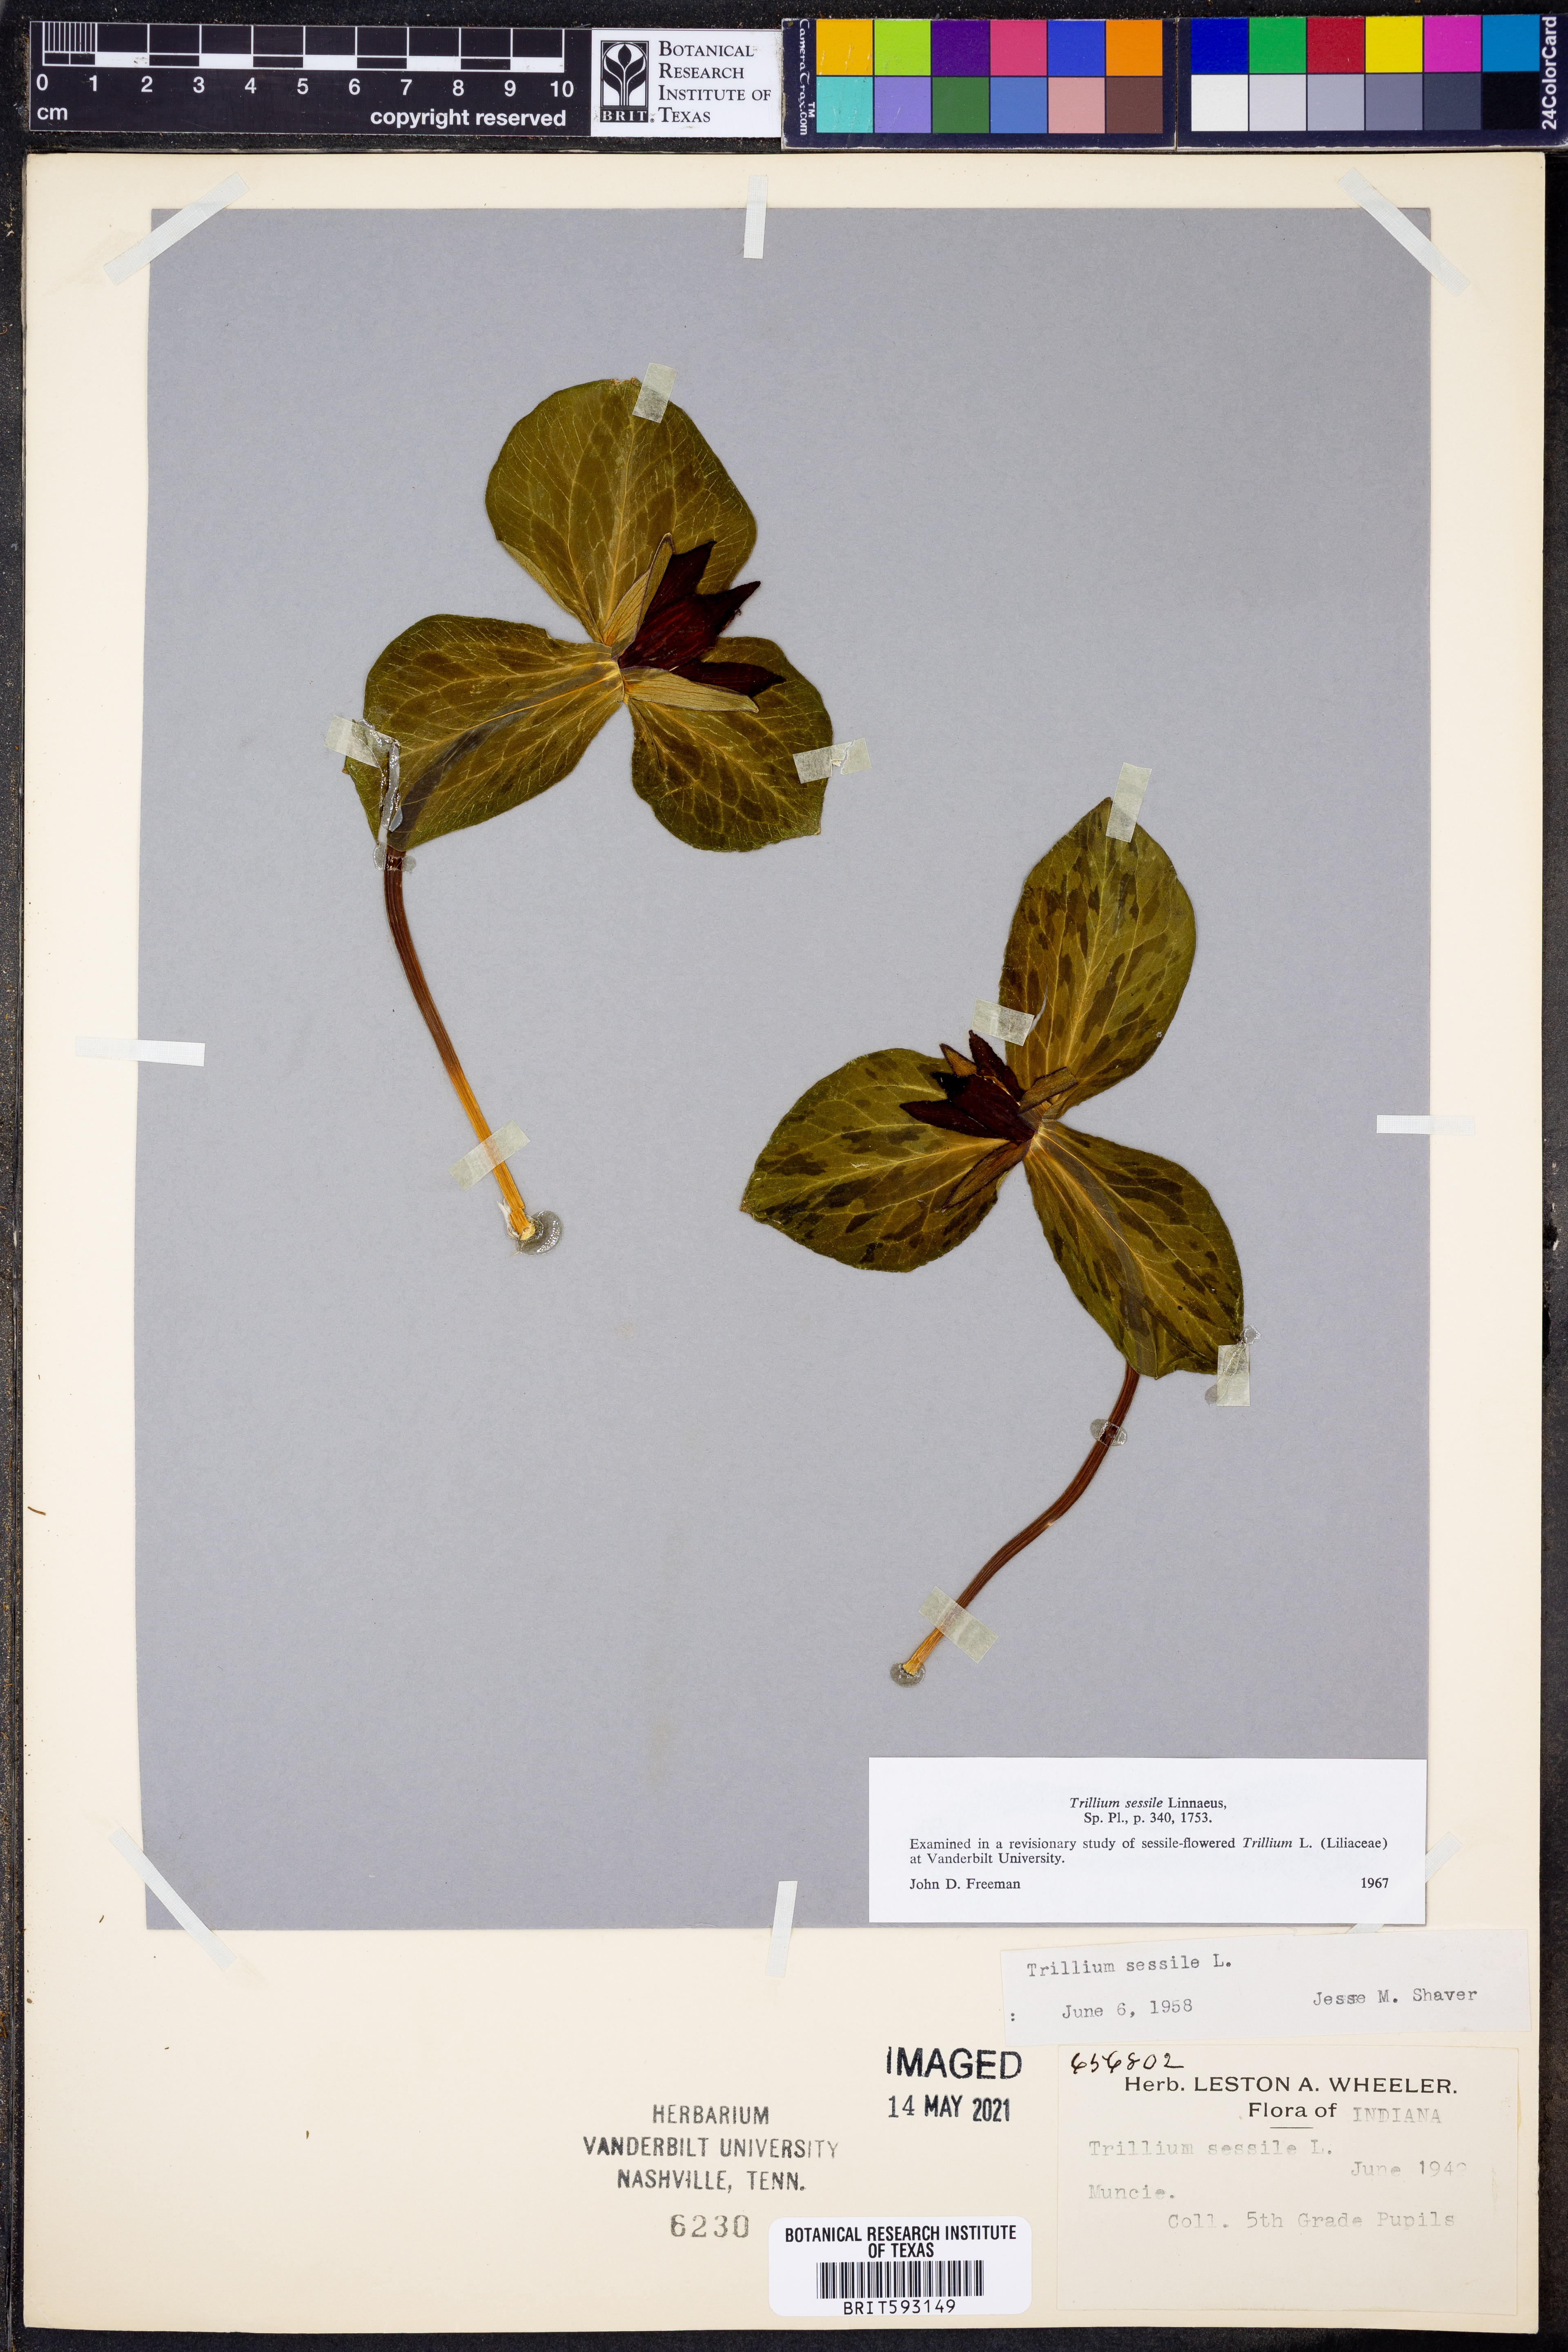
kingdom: Plantae
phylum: Tracheophyta
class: Liliopsida
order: Liliales
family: Melanthiaceae
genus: Trillium
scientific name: Trillium sessile
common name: Sessile trillium
